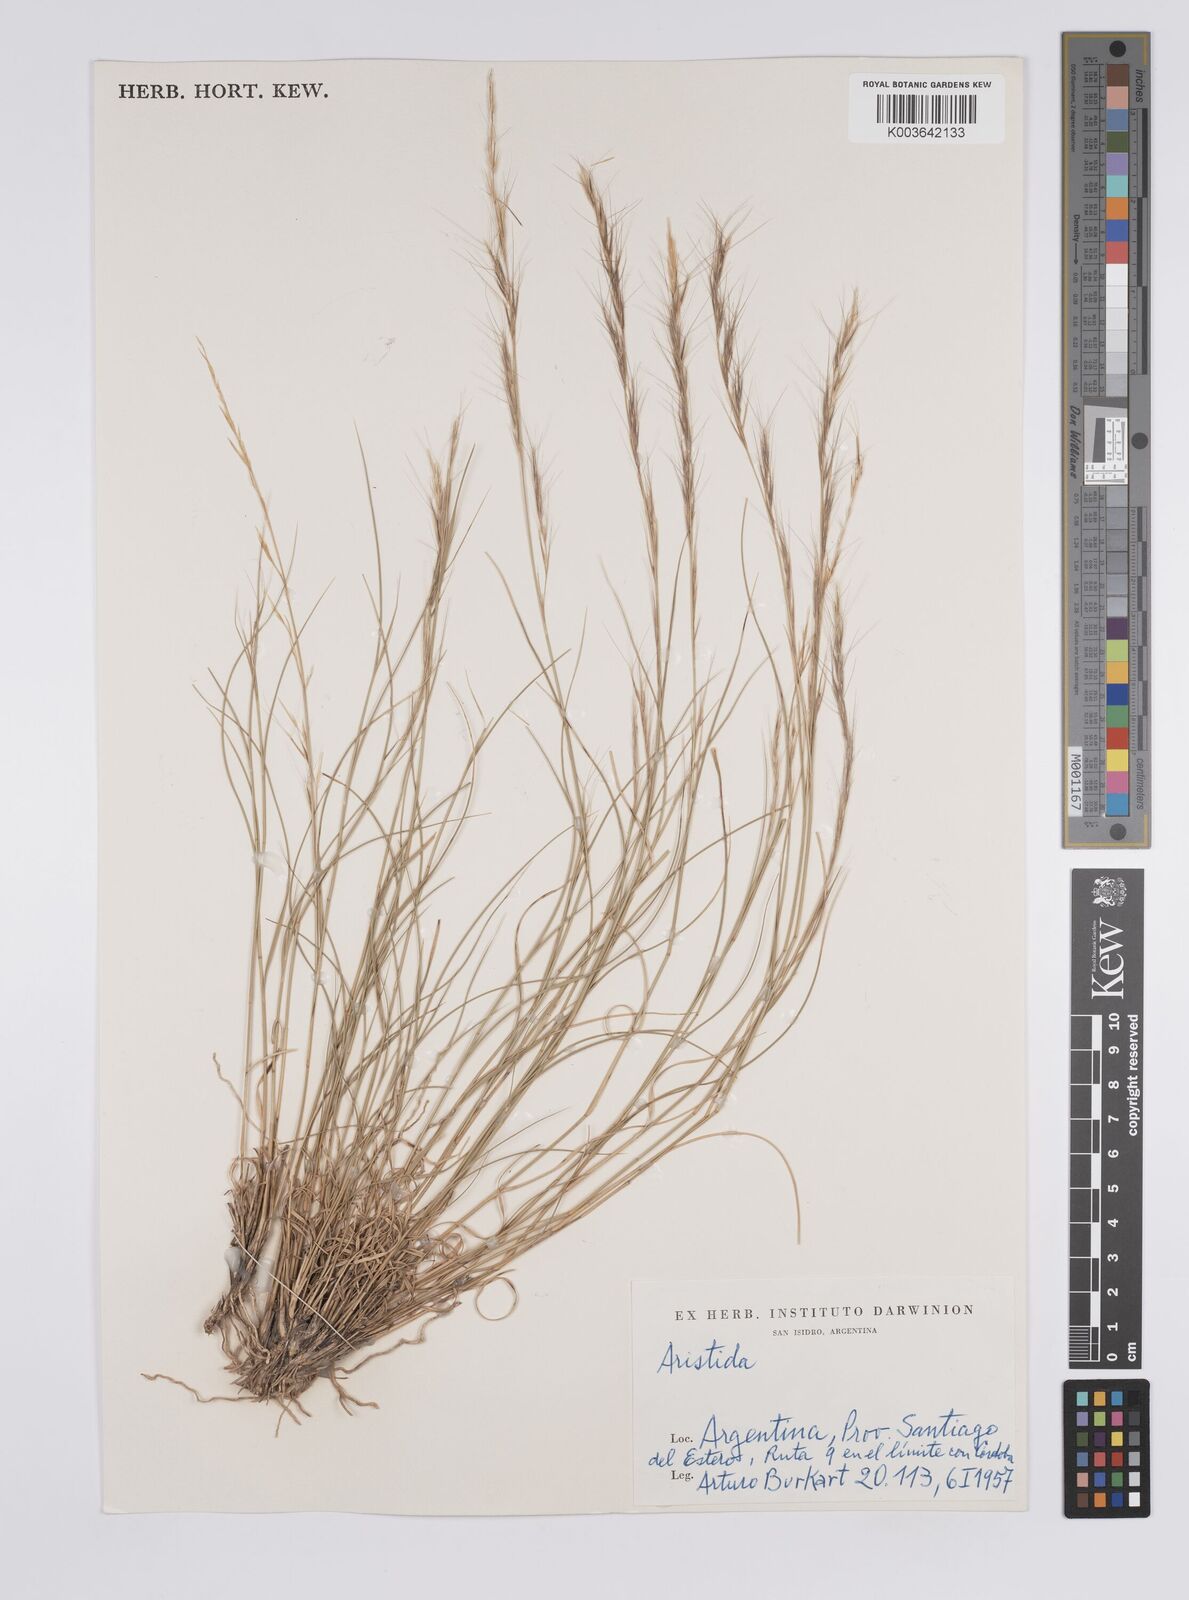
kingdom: Plantae
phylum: Tracheophyta
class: Liliopsida
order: Poales
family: Poaceae
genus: Aristida
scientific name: Aristida
